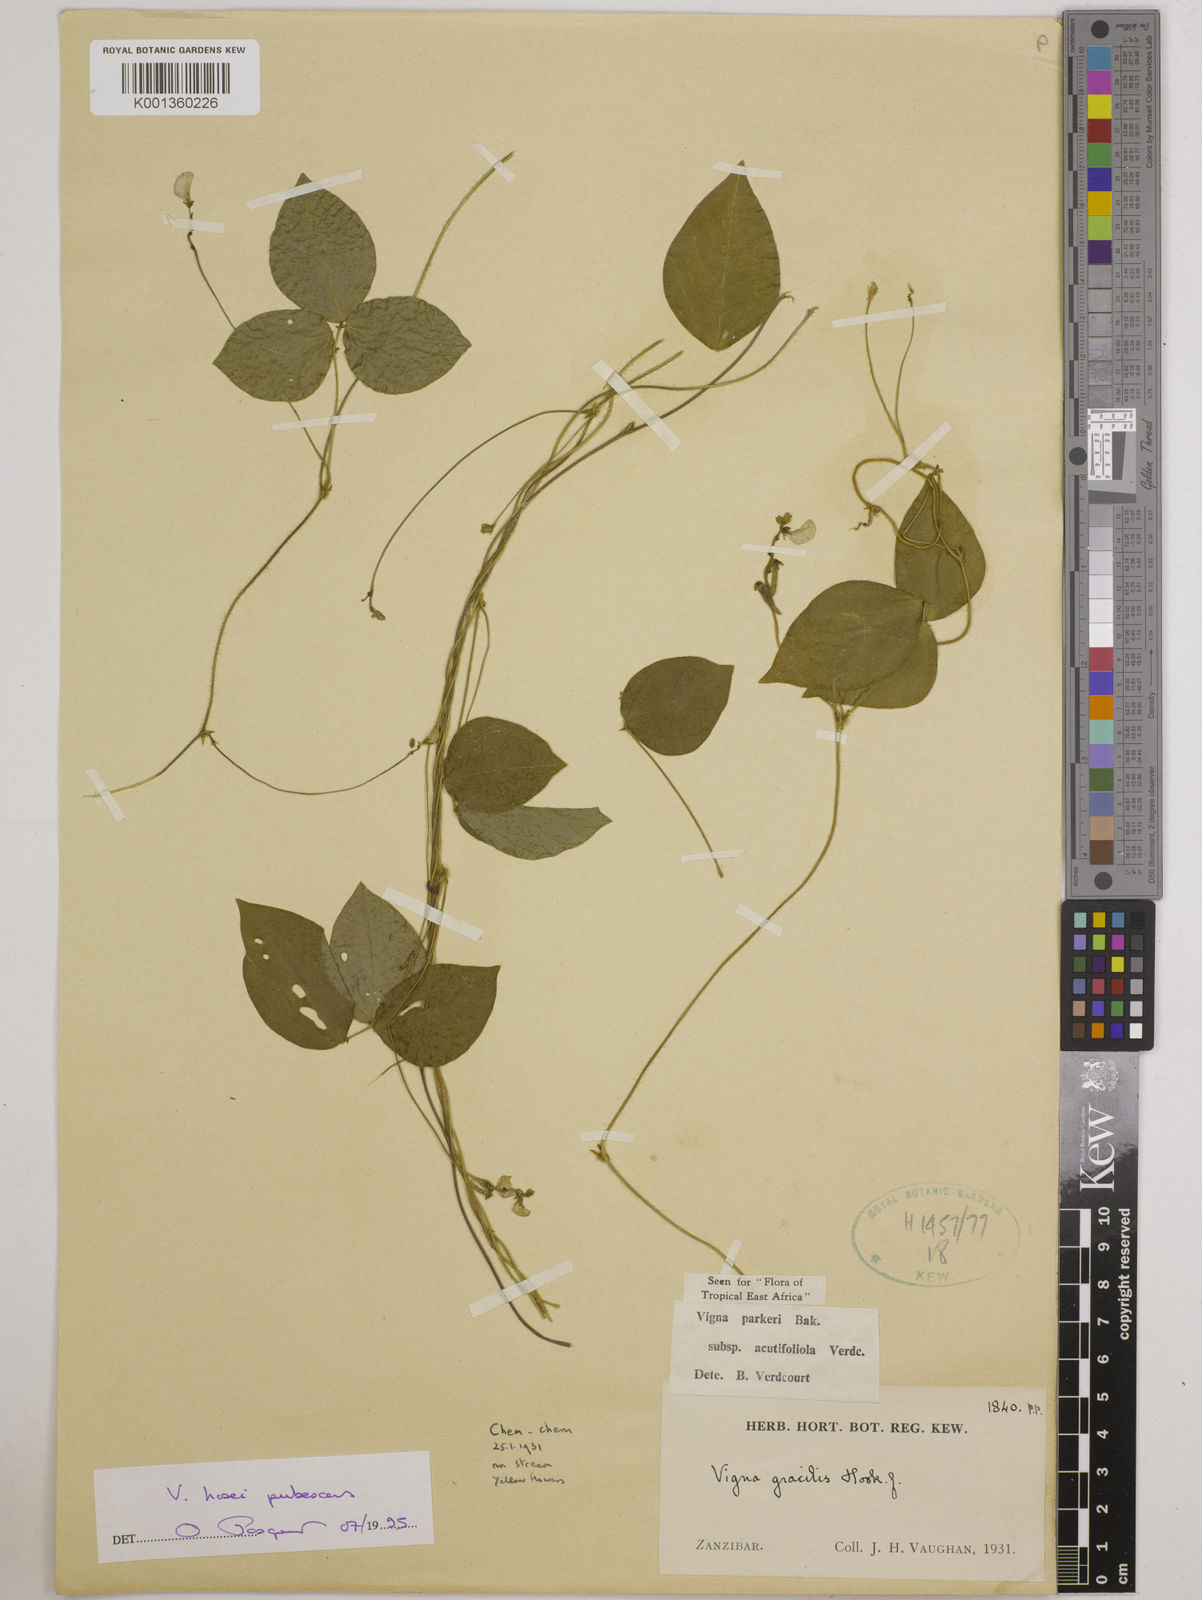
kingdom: Plantae
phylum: Tracheophyta
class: Magnoliopsida
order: Fabales
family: Fabaceae
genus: Vigna
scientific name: Vigna hosei
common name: Sarawak-bean
